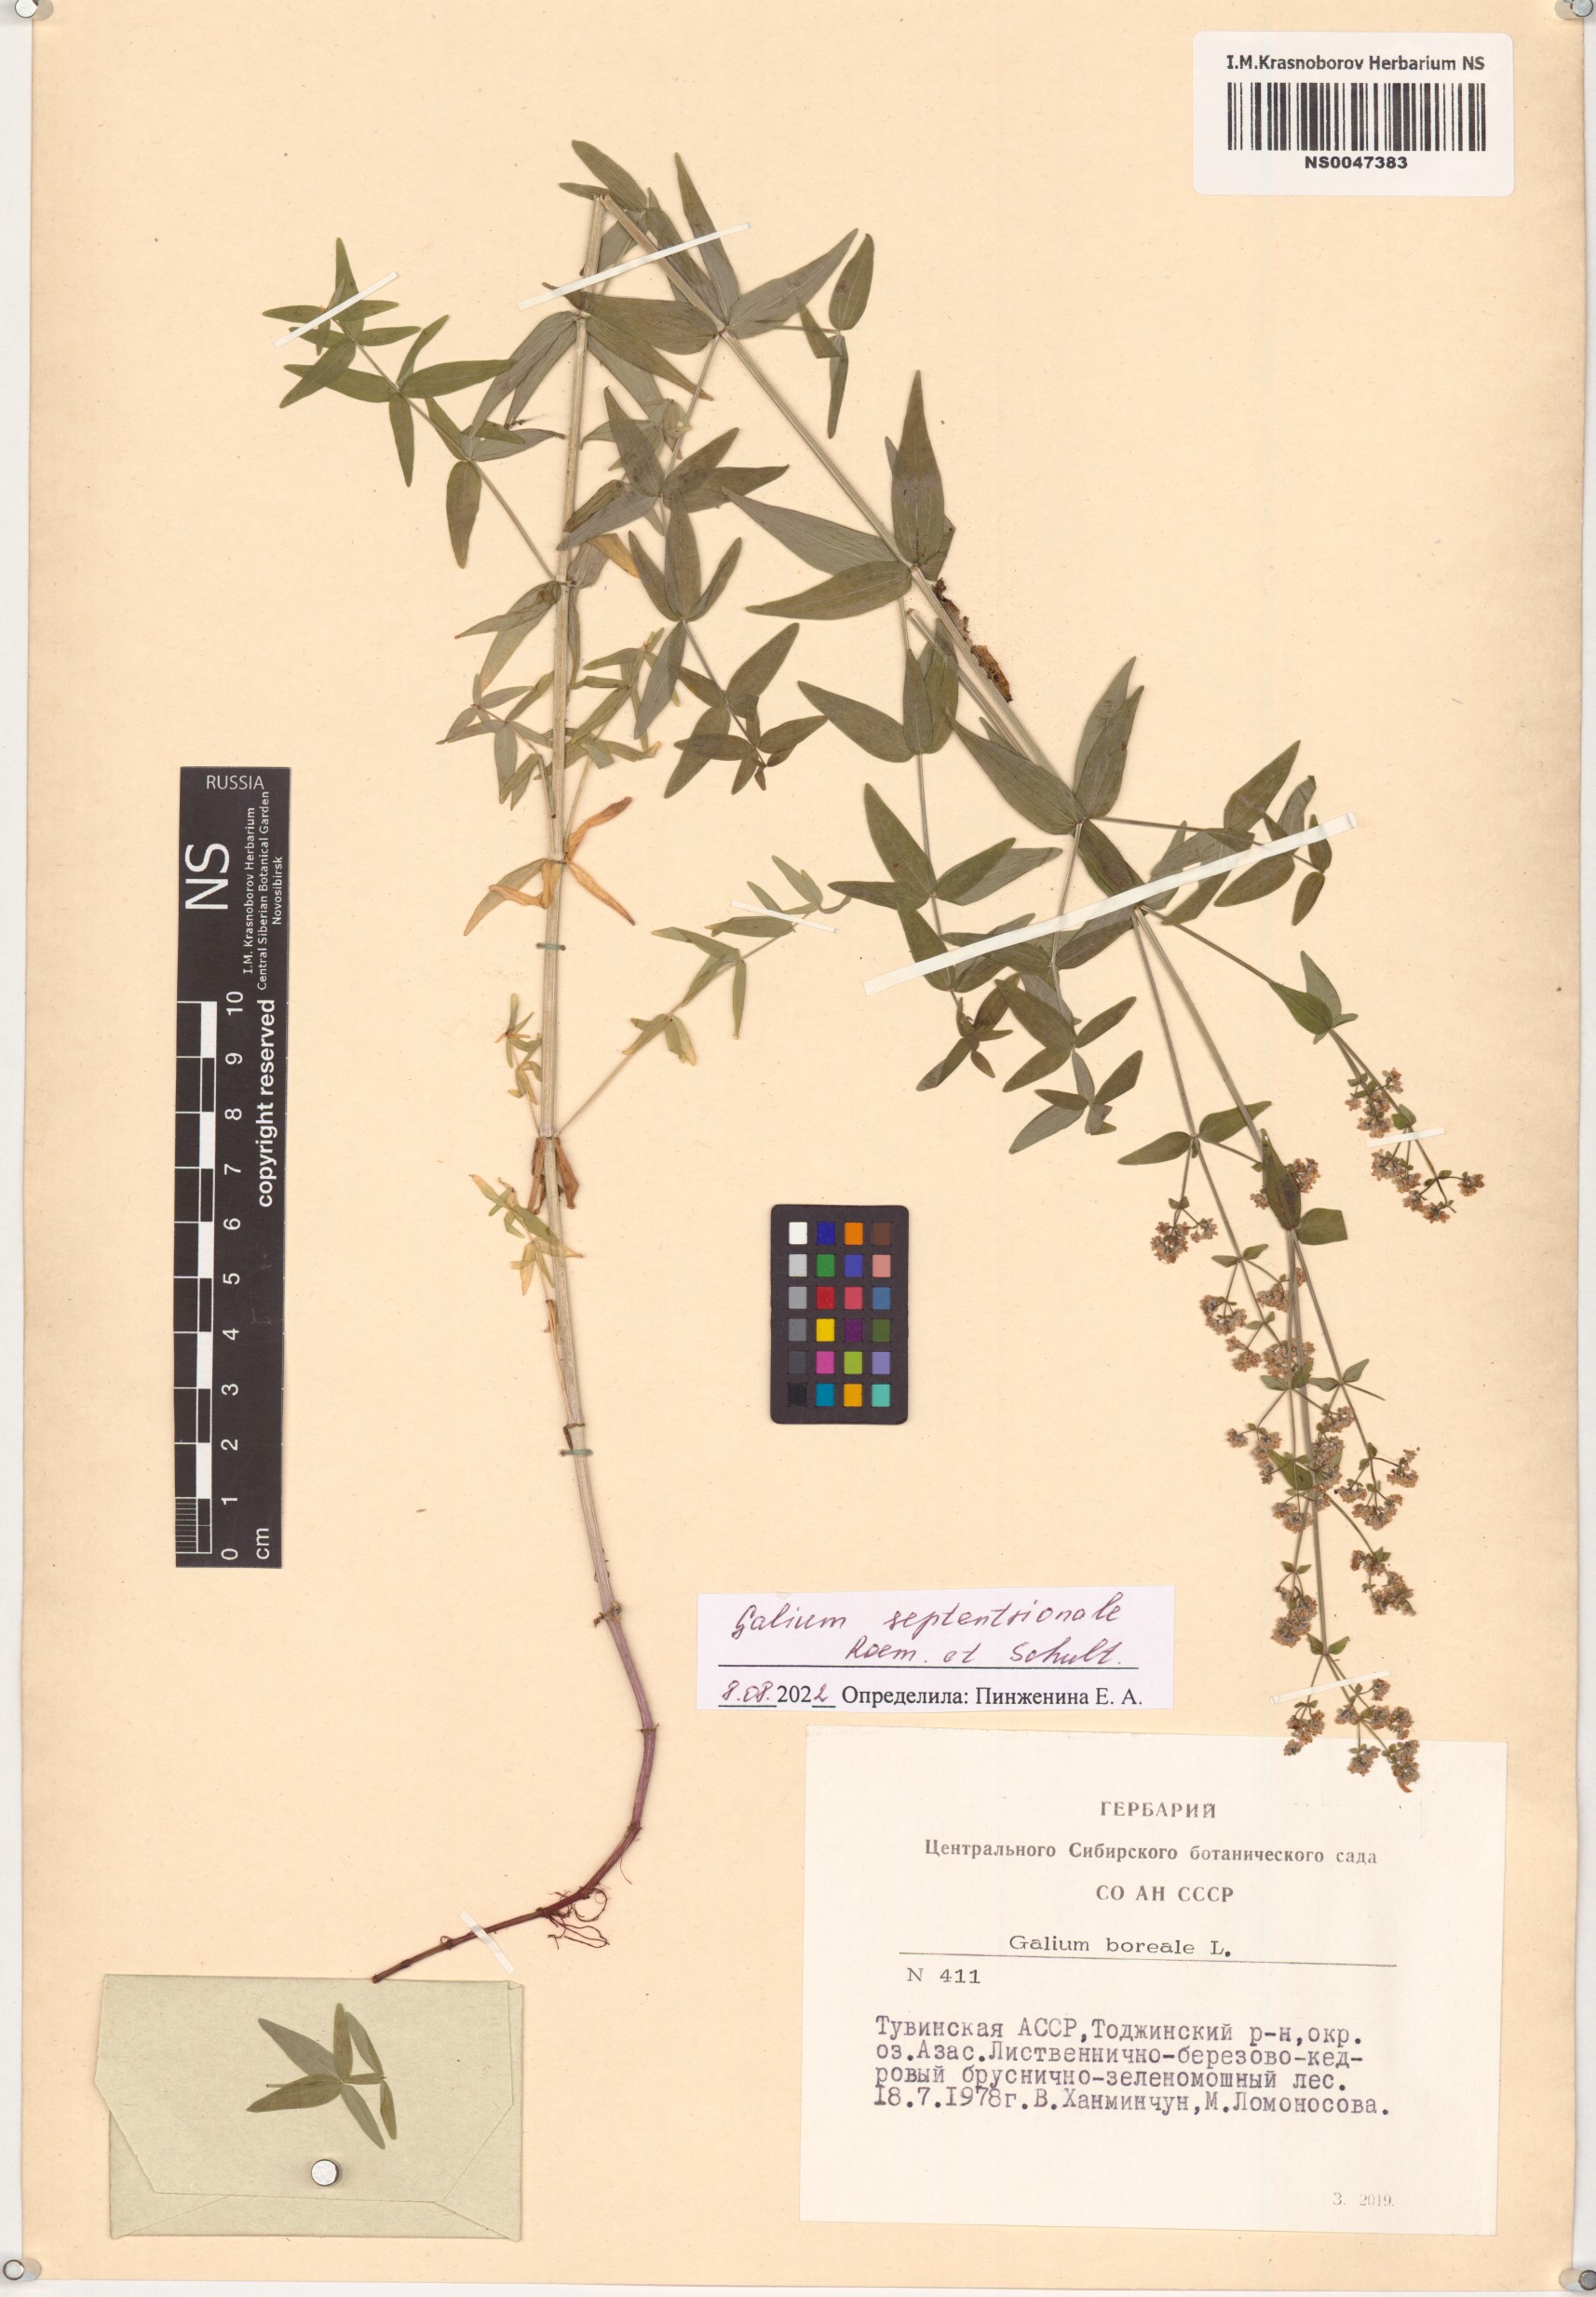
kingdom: Plantae
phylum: Tracheophyta
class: Magnoliopsida
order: Gentianales
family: Rubiaceae
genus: Galium
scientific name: Galium boreale
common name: Northern bedstraw
